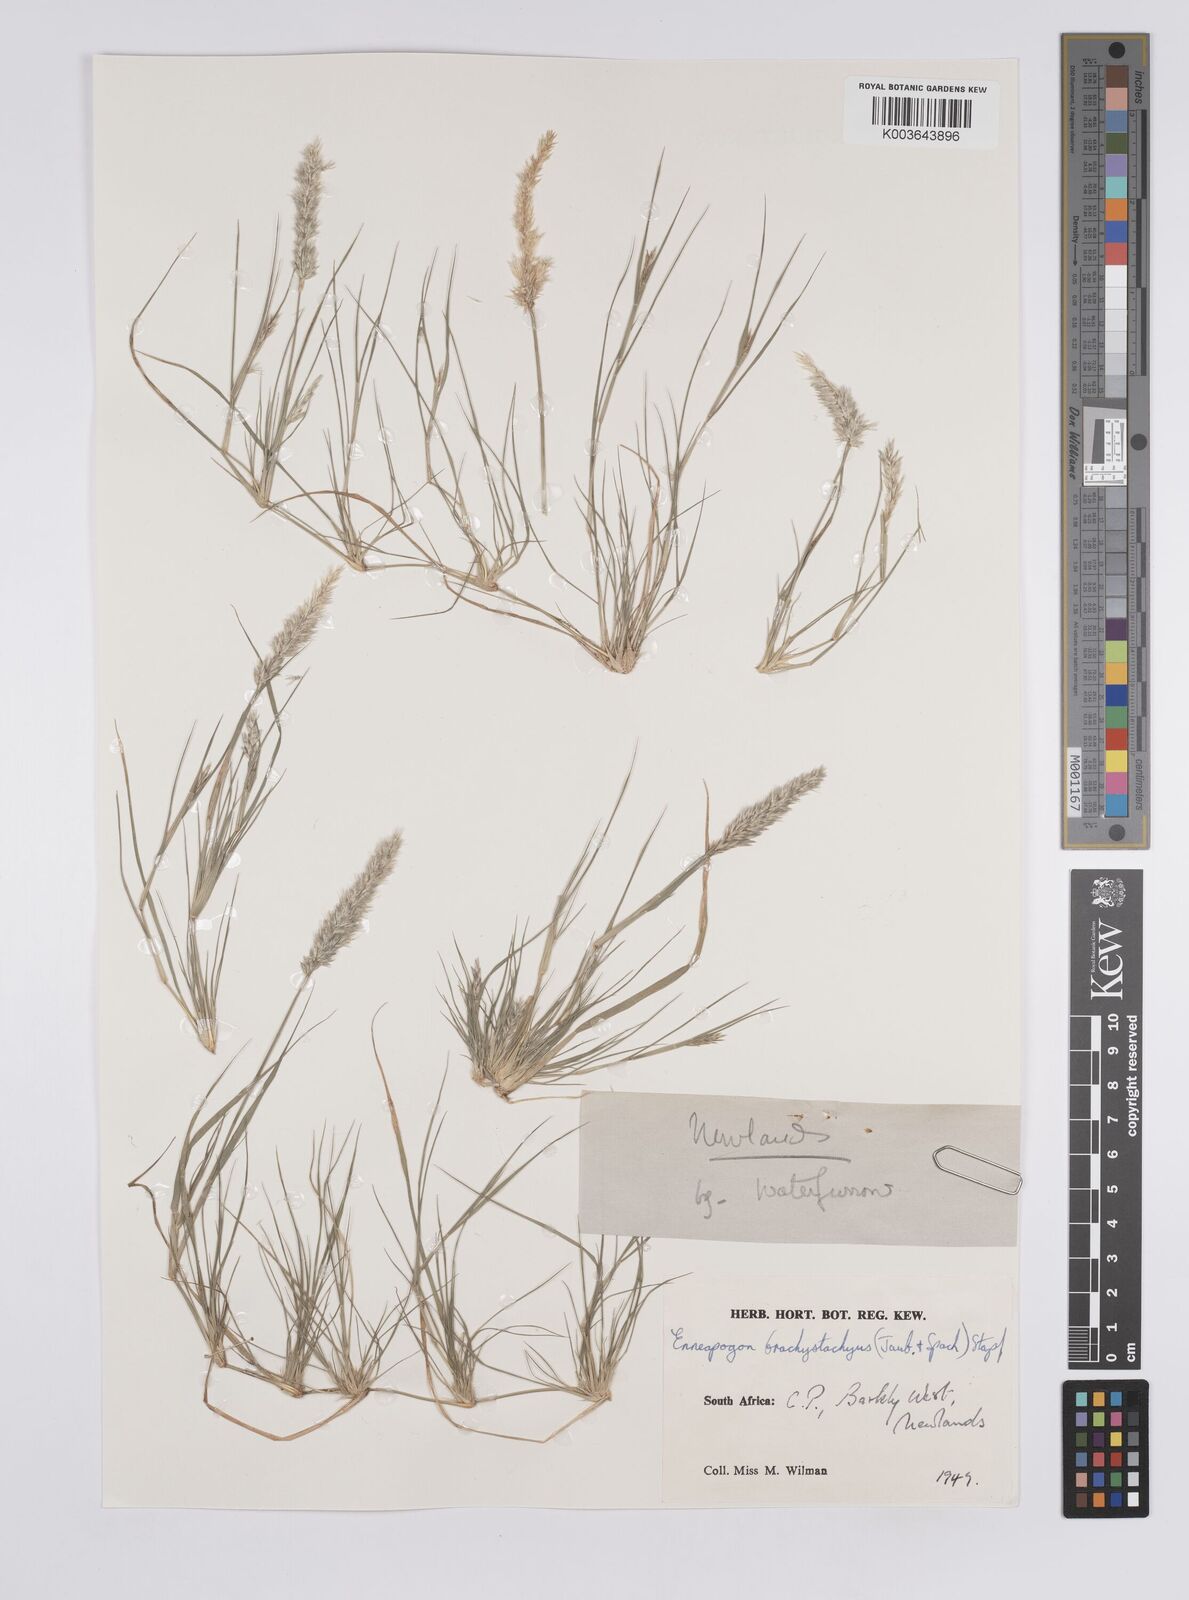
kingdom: Plantae
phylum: Tracheophyta
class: Liliopsida
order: Poales
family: Poaceae
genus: Enneapogon
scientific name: Enneapogon desvauxii
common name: Feather pappus grass
